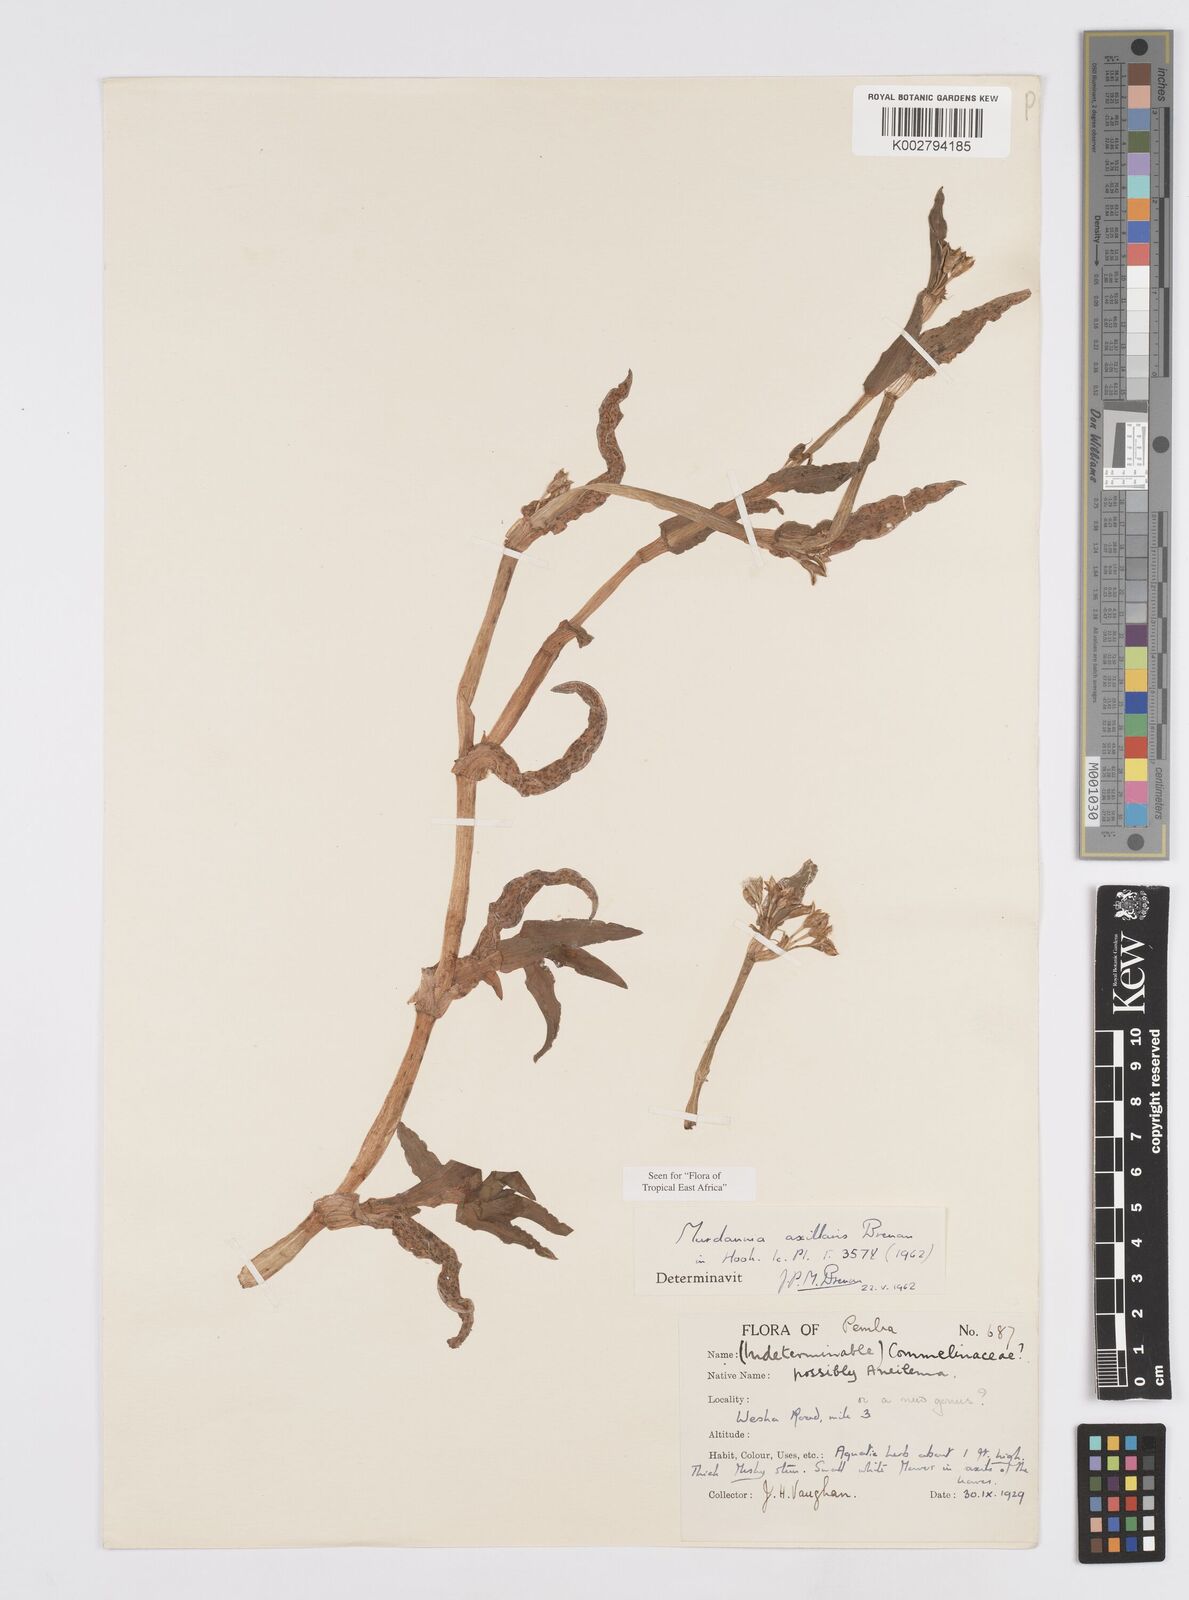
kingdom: Plantae
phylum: Tracheophyta
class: Liliopsida
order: Commelinales
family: Commelinaceae
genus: Murdannia
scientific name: Murdannia axillaris
